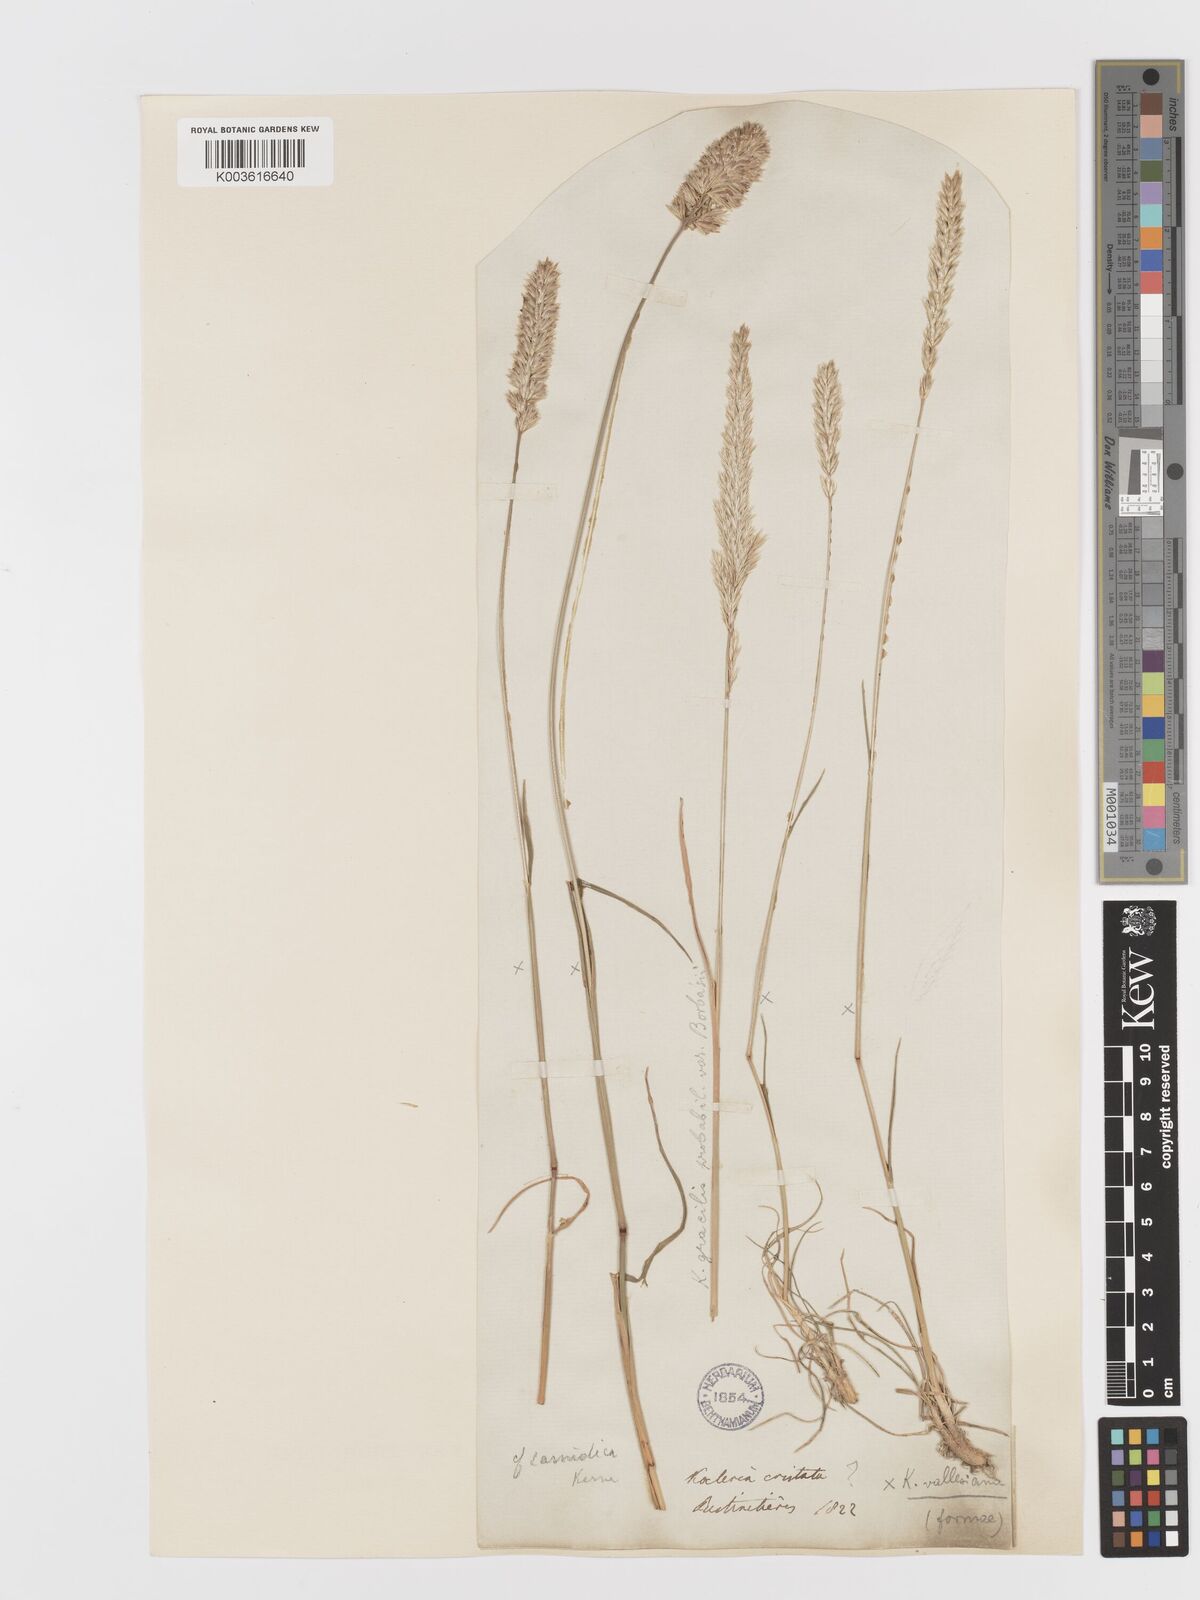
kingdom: Plantae
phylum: Tracheophyta
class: Liliopsida
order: Poales
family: Poaceae
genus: Koeleria
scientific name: Koeleria vallesiana
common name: Somerset hair-grass
